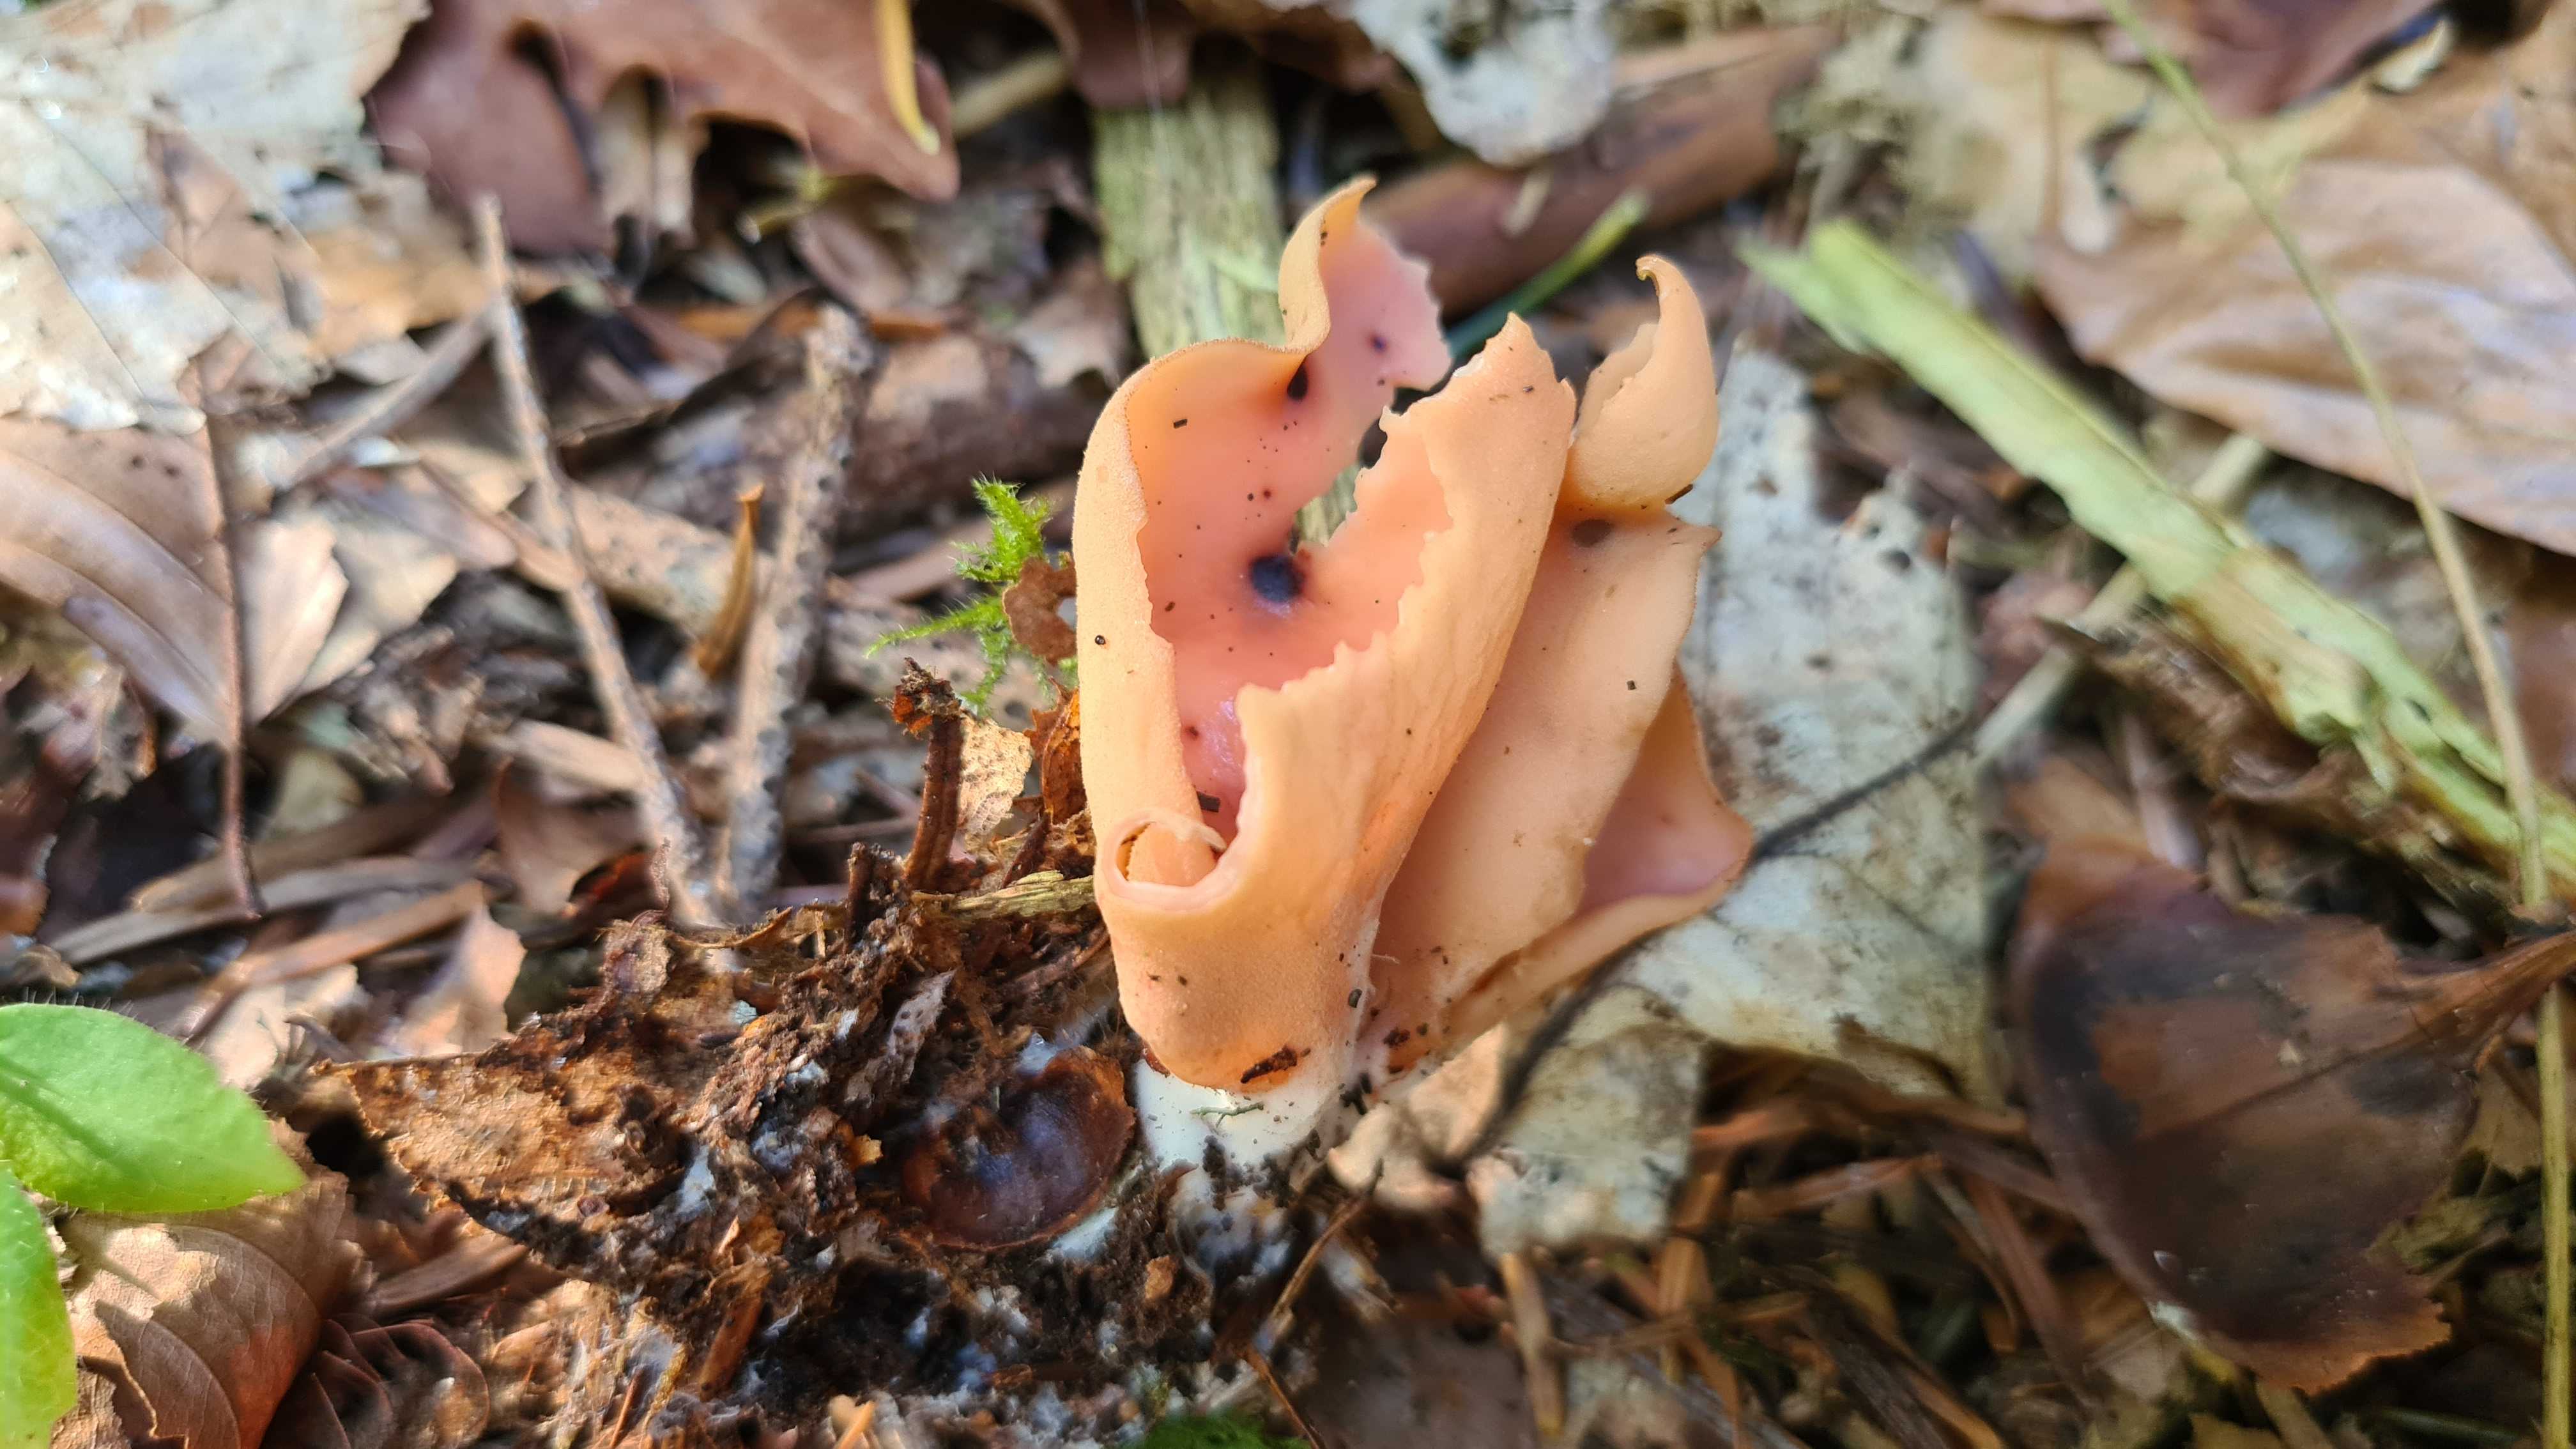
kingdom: Fungi
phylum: Ascomycota
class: Pezizomycetes
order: Pezizales
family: Otideaceae
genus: Otidea
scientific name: Otidea onotica
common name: æsel-ørebæger
